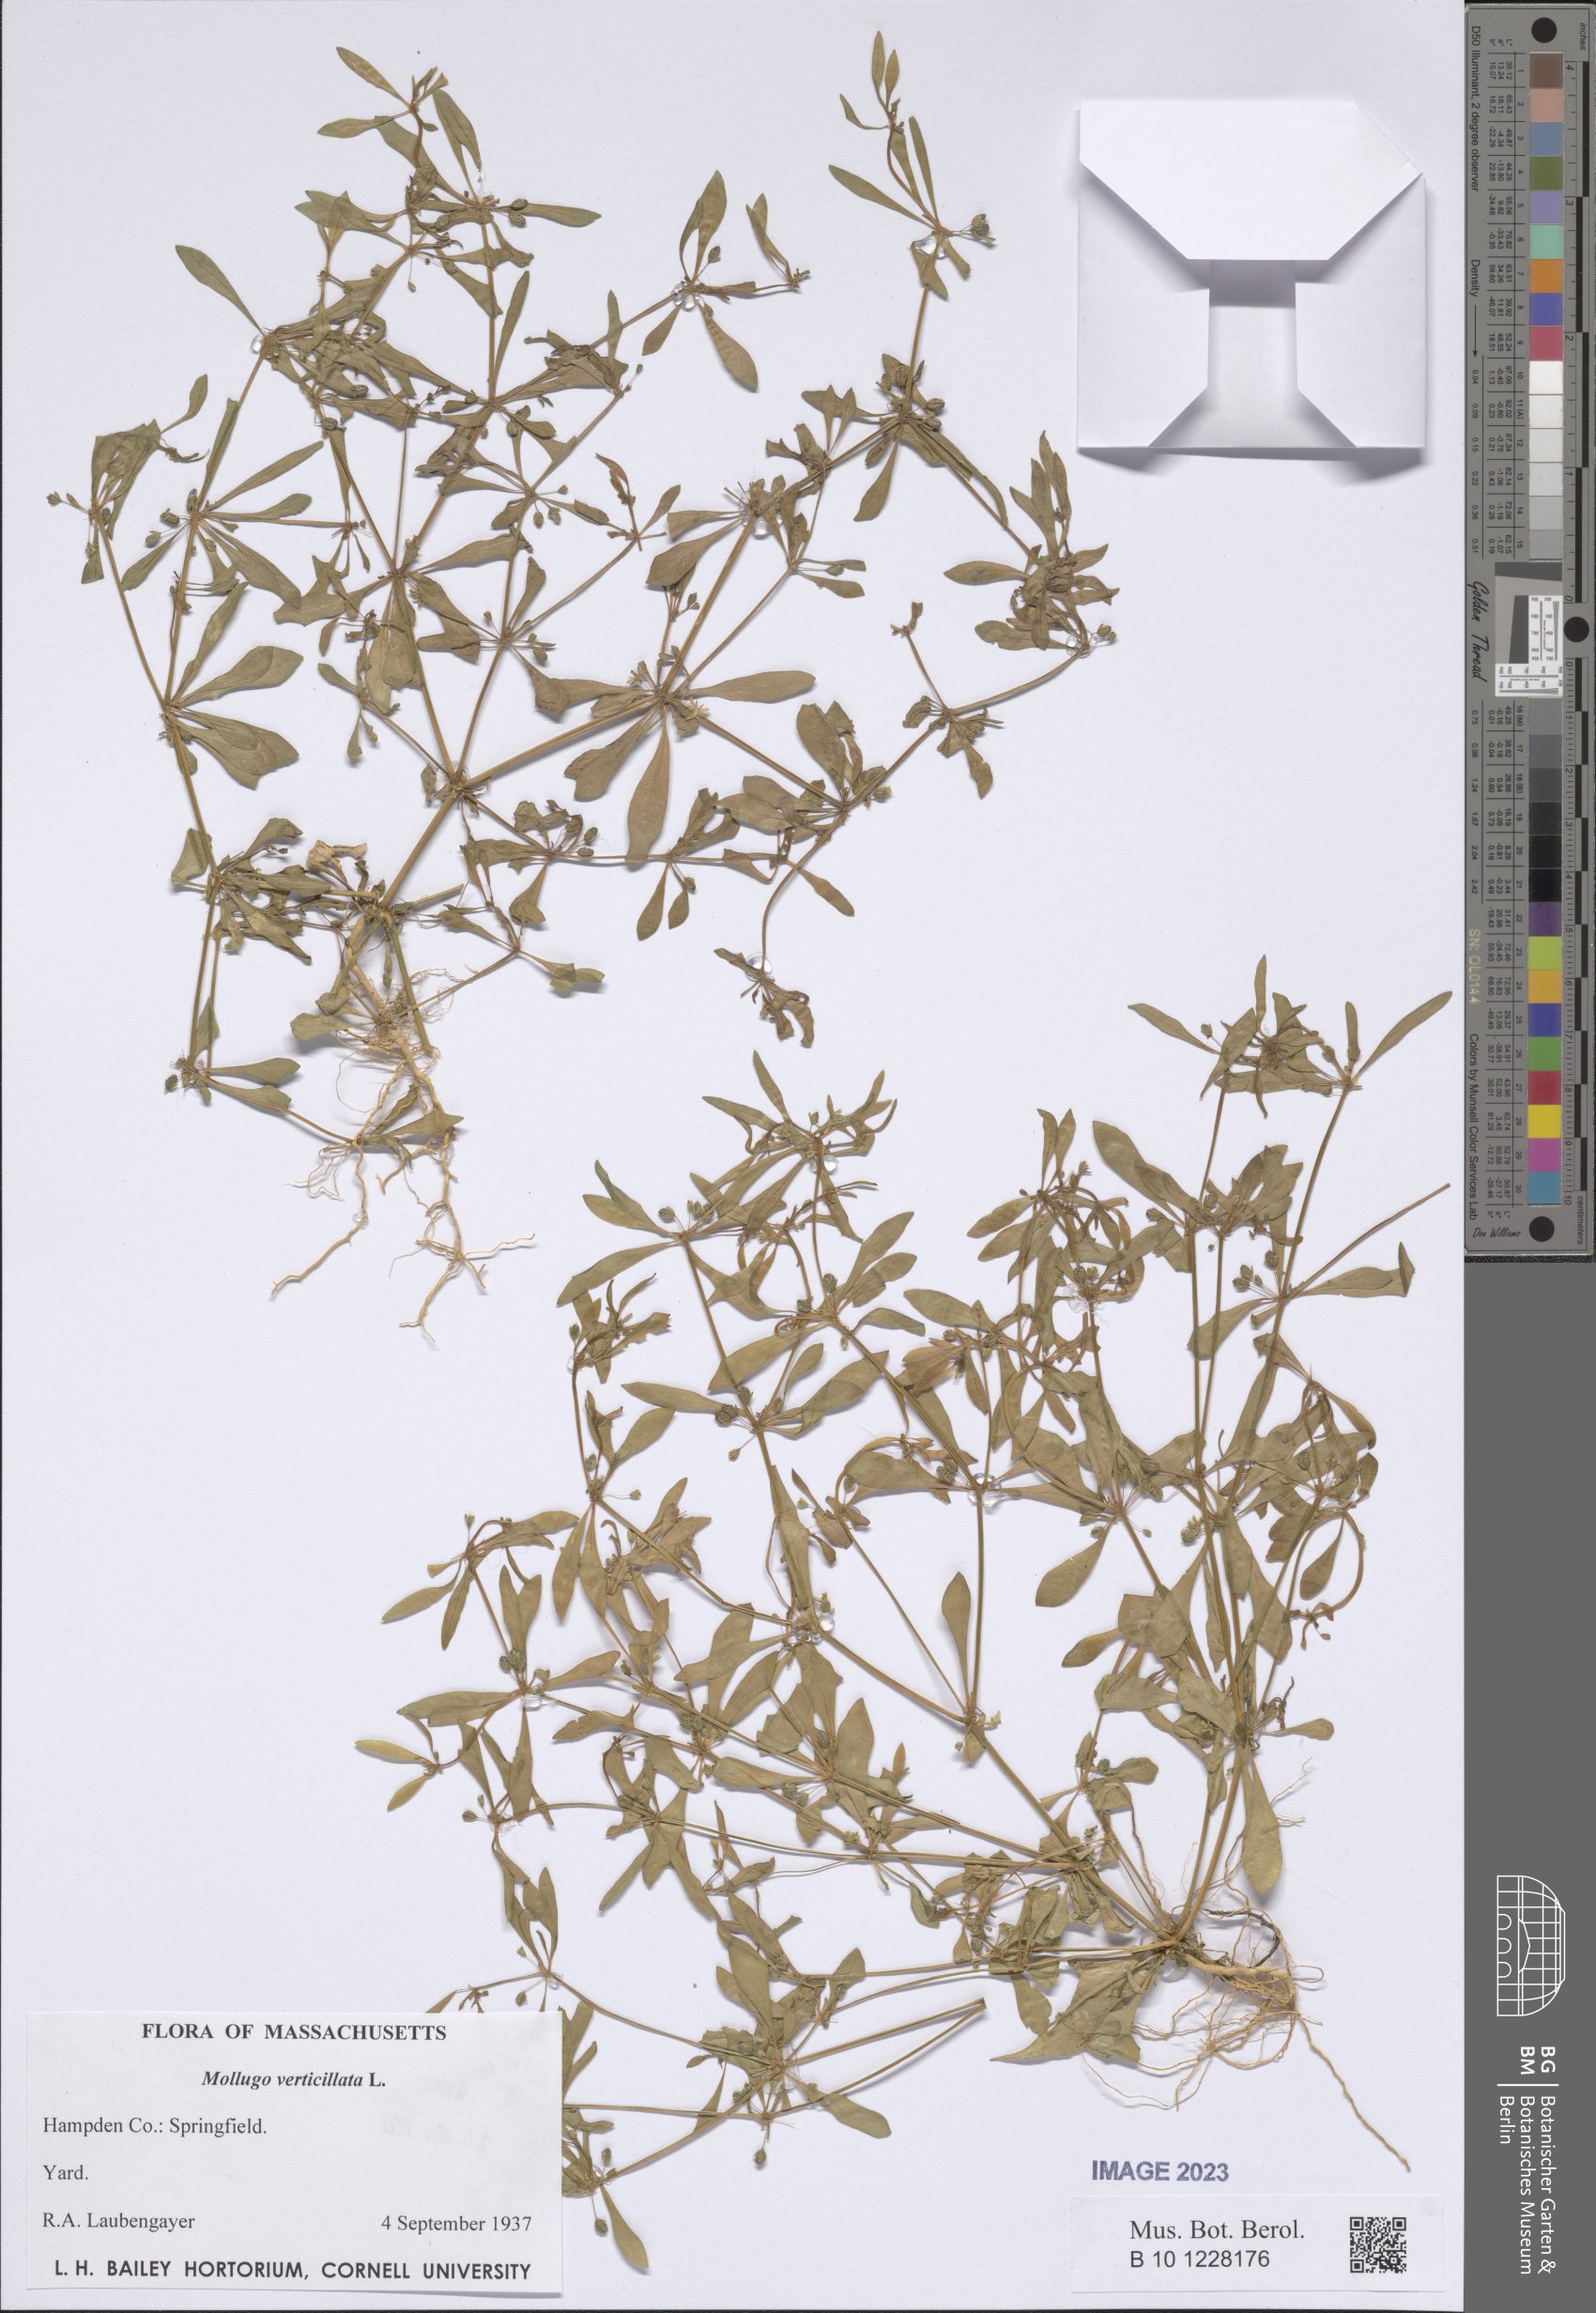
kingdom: Plantae
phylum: Tracheophyta
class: Magnoliopsida
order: Caryophyllales
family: Molluginaceae
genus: Mollugo
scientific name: Mollugo verticillata
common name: Green carpetweed
